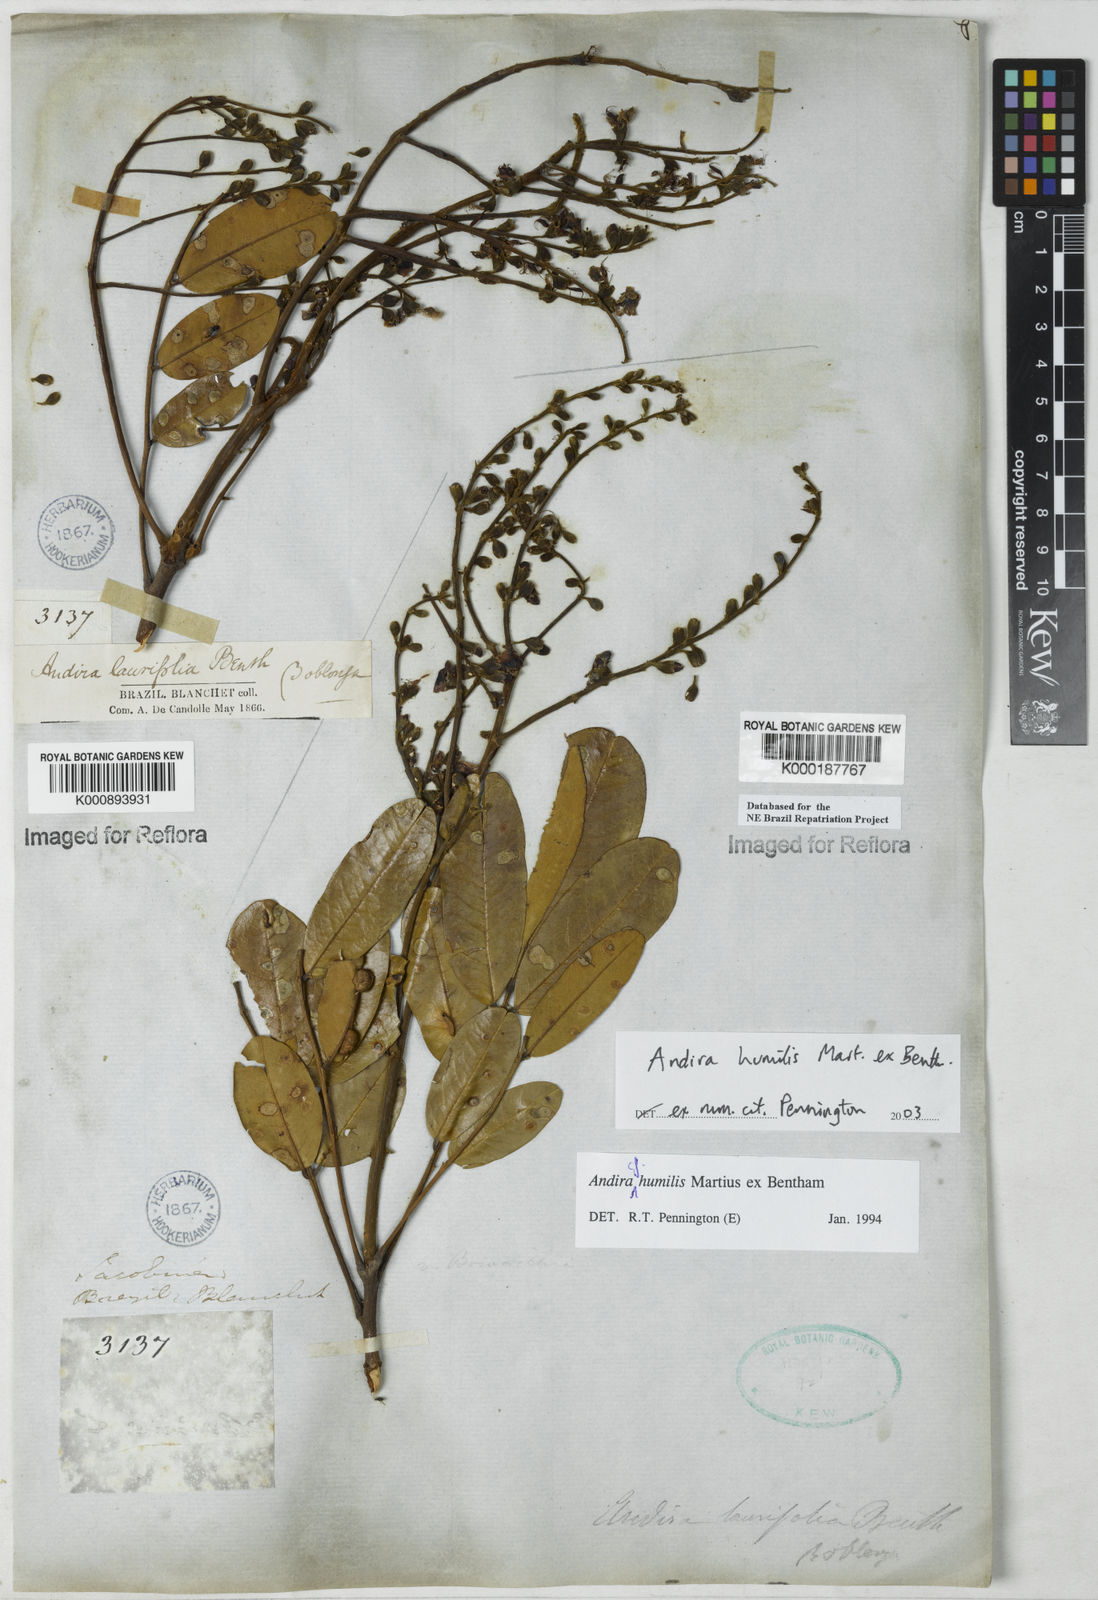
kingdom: Plantae
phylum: Tracheophyta
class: Magnoliopsida
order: Fabales
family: Fabaceae
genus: Andira
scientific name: Andira humilis
